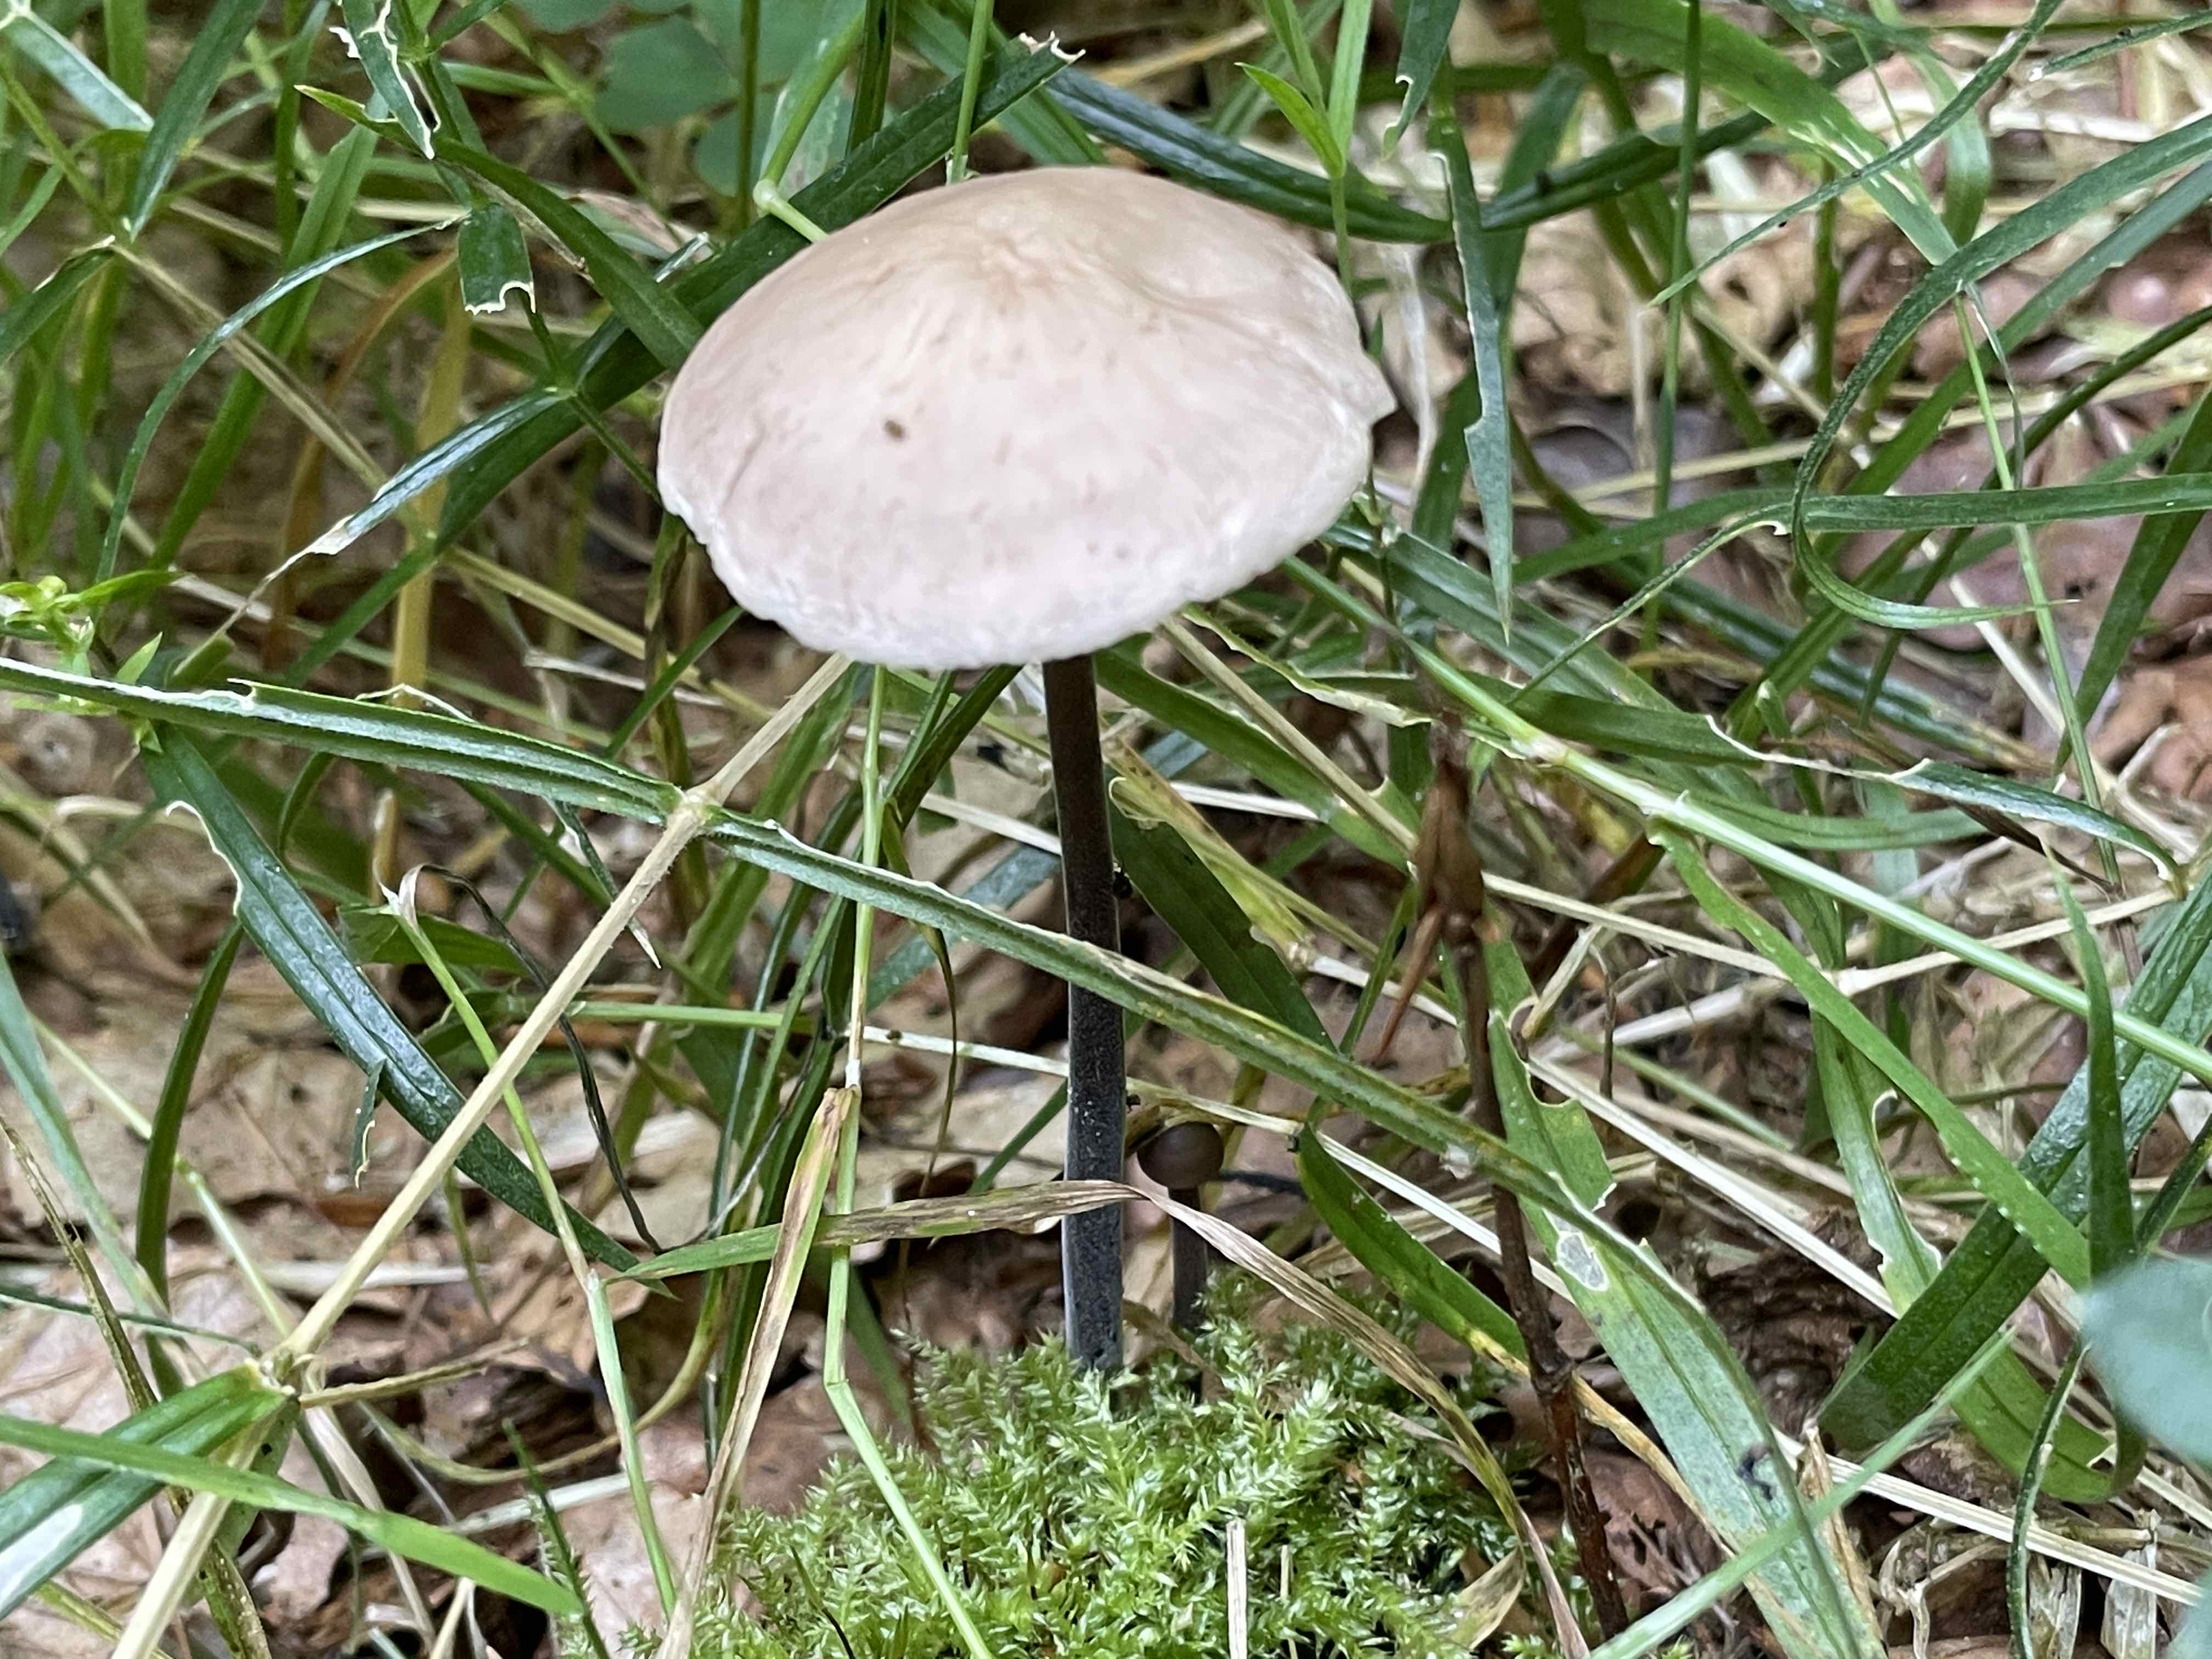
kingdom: Fungi
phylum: Basidiomycota
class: Agaricomycetes
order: Agaricales
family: Omphalotaceae
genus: Mycetinis
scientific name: Mycetinis alliaceus
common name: stor løghat
